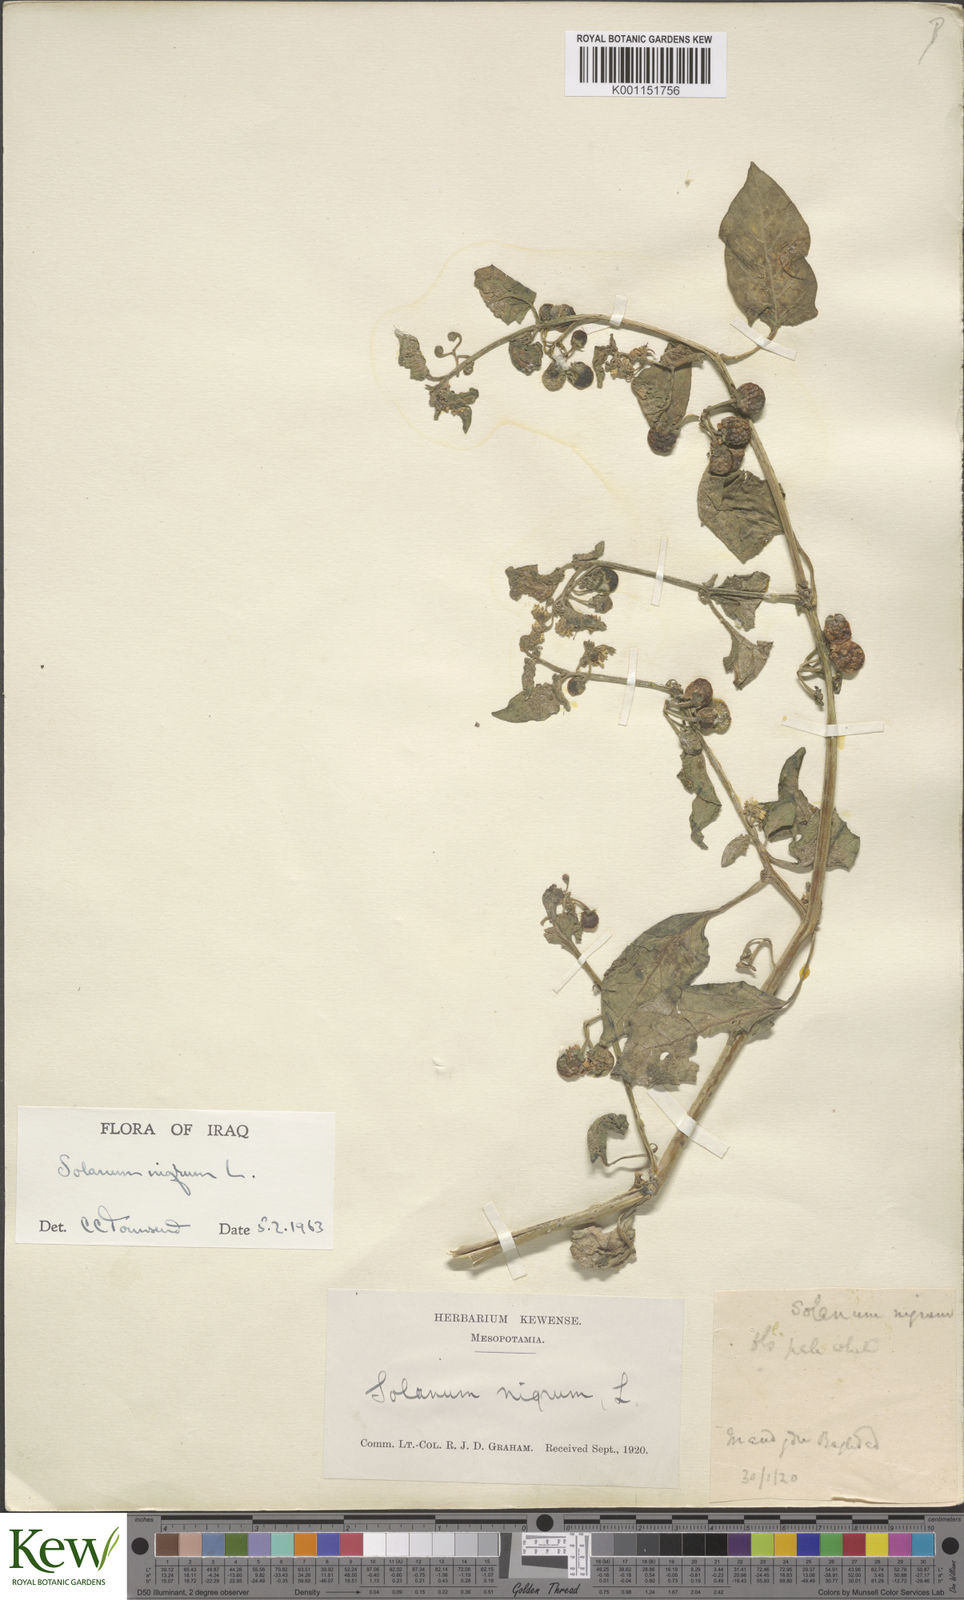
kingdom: Plantae
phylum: Tracheophyta
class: Magnoliopsida
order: Solanales
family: Solanaceae
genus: Solanum
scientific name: Solanum nigrum
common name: Black nightshade
